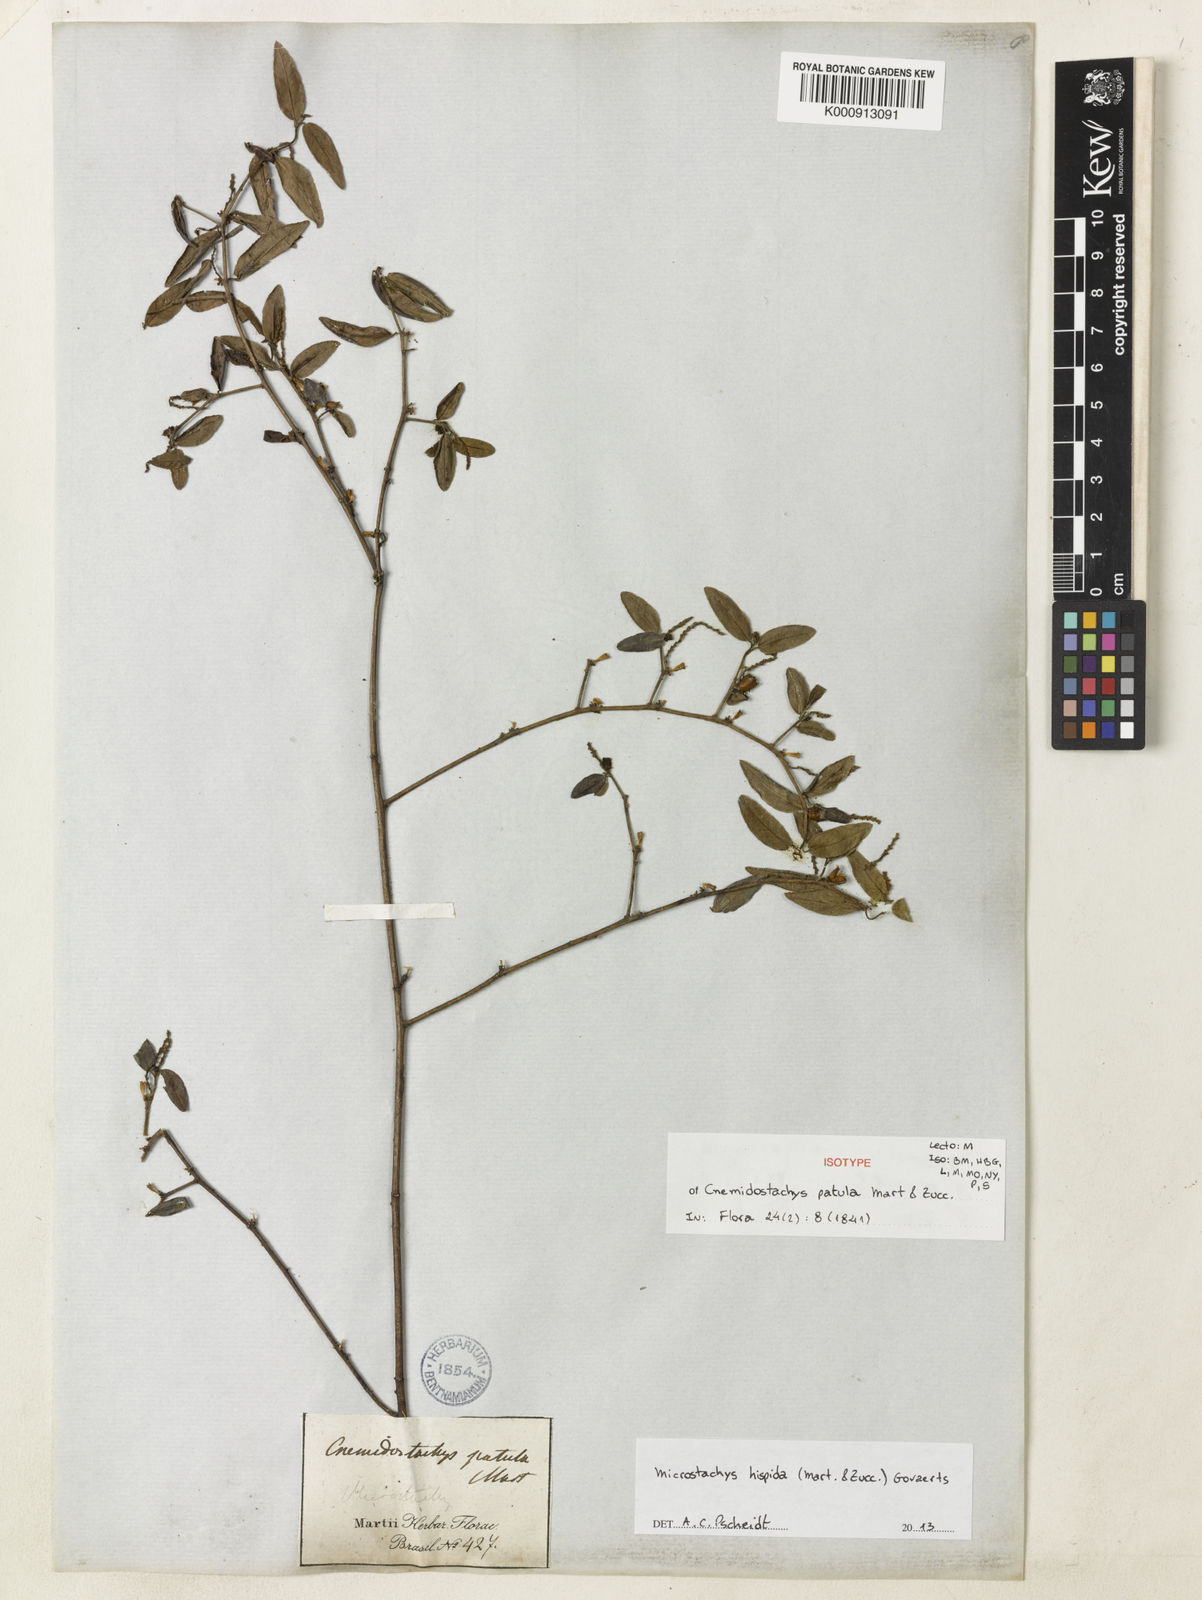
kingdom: Plantae
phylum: Tracheophyta
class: Magnoliopsida
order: Malpighiales
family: Euphorbiaceae
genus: Microstachys
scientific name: Microstachys hispida
